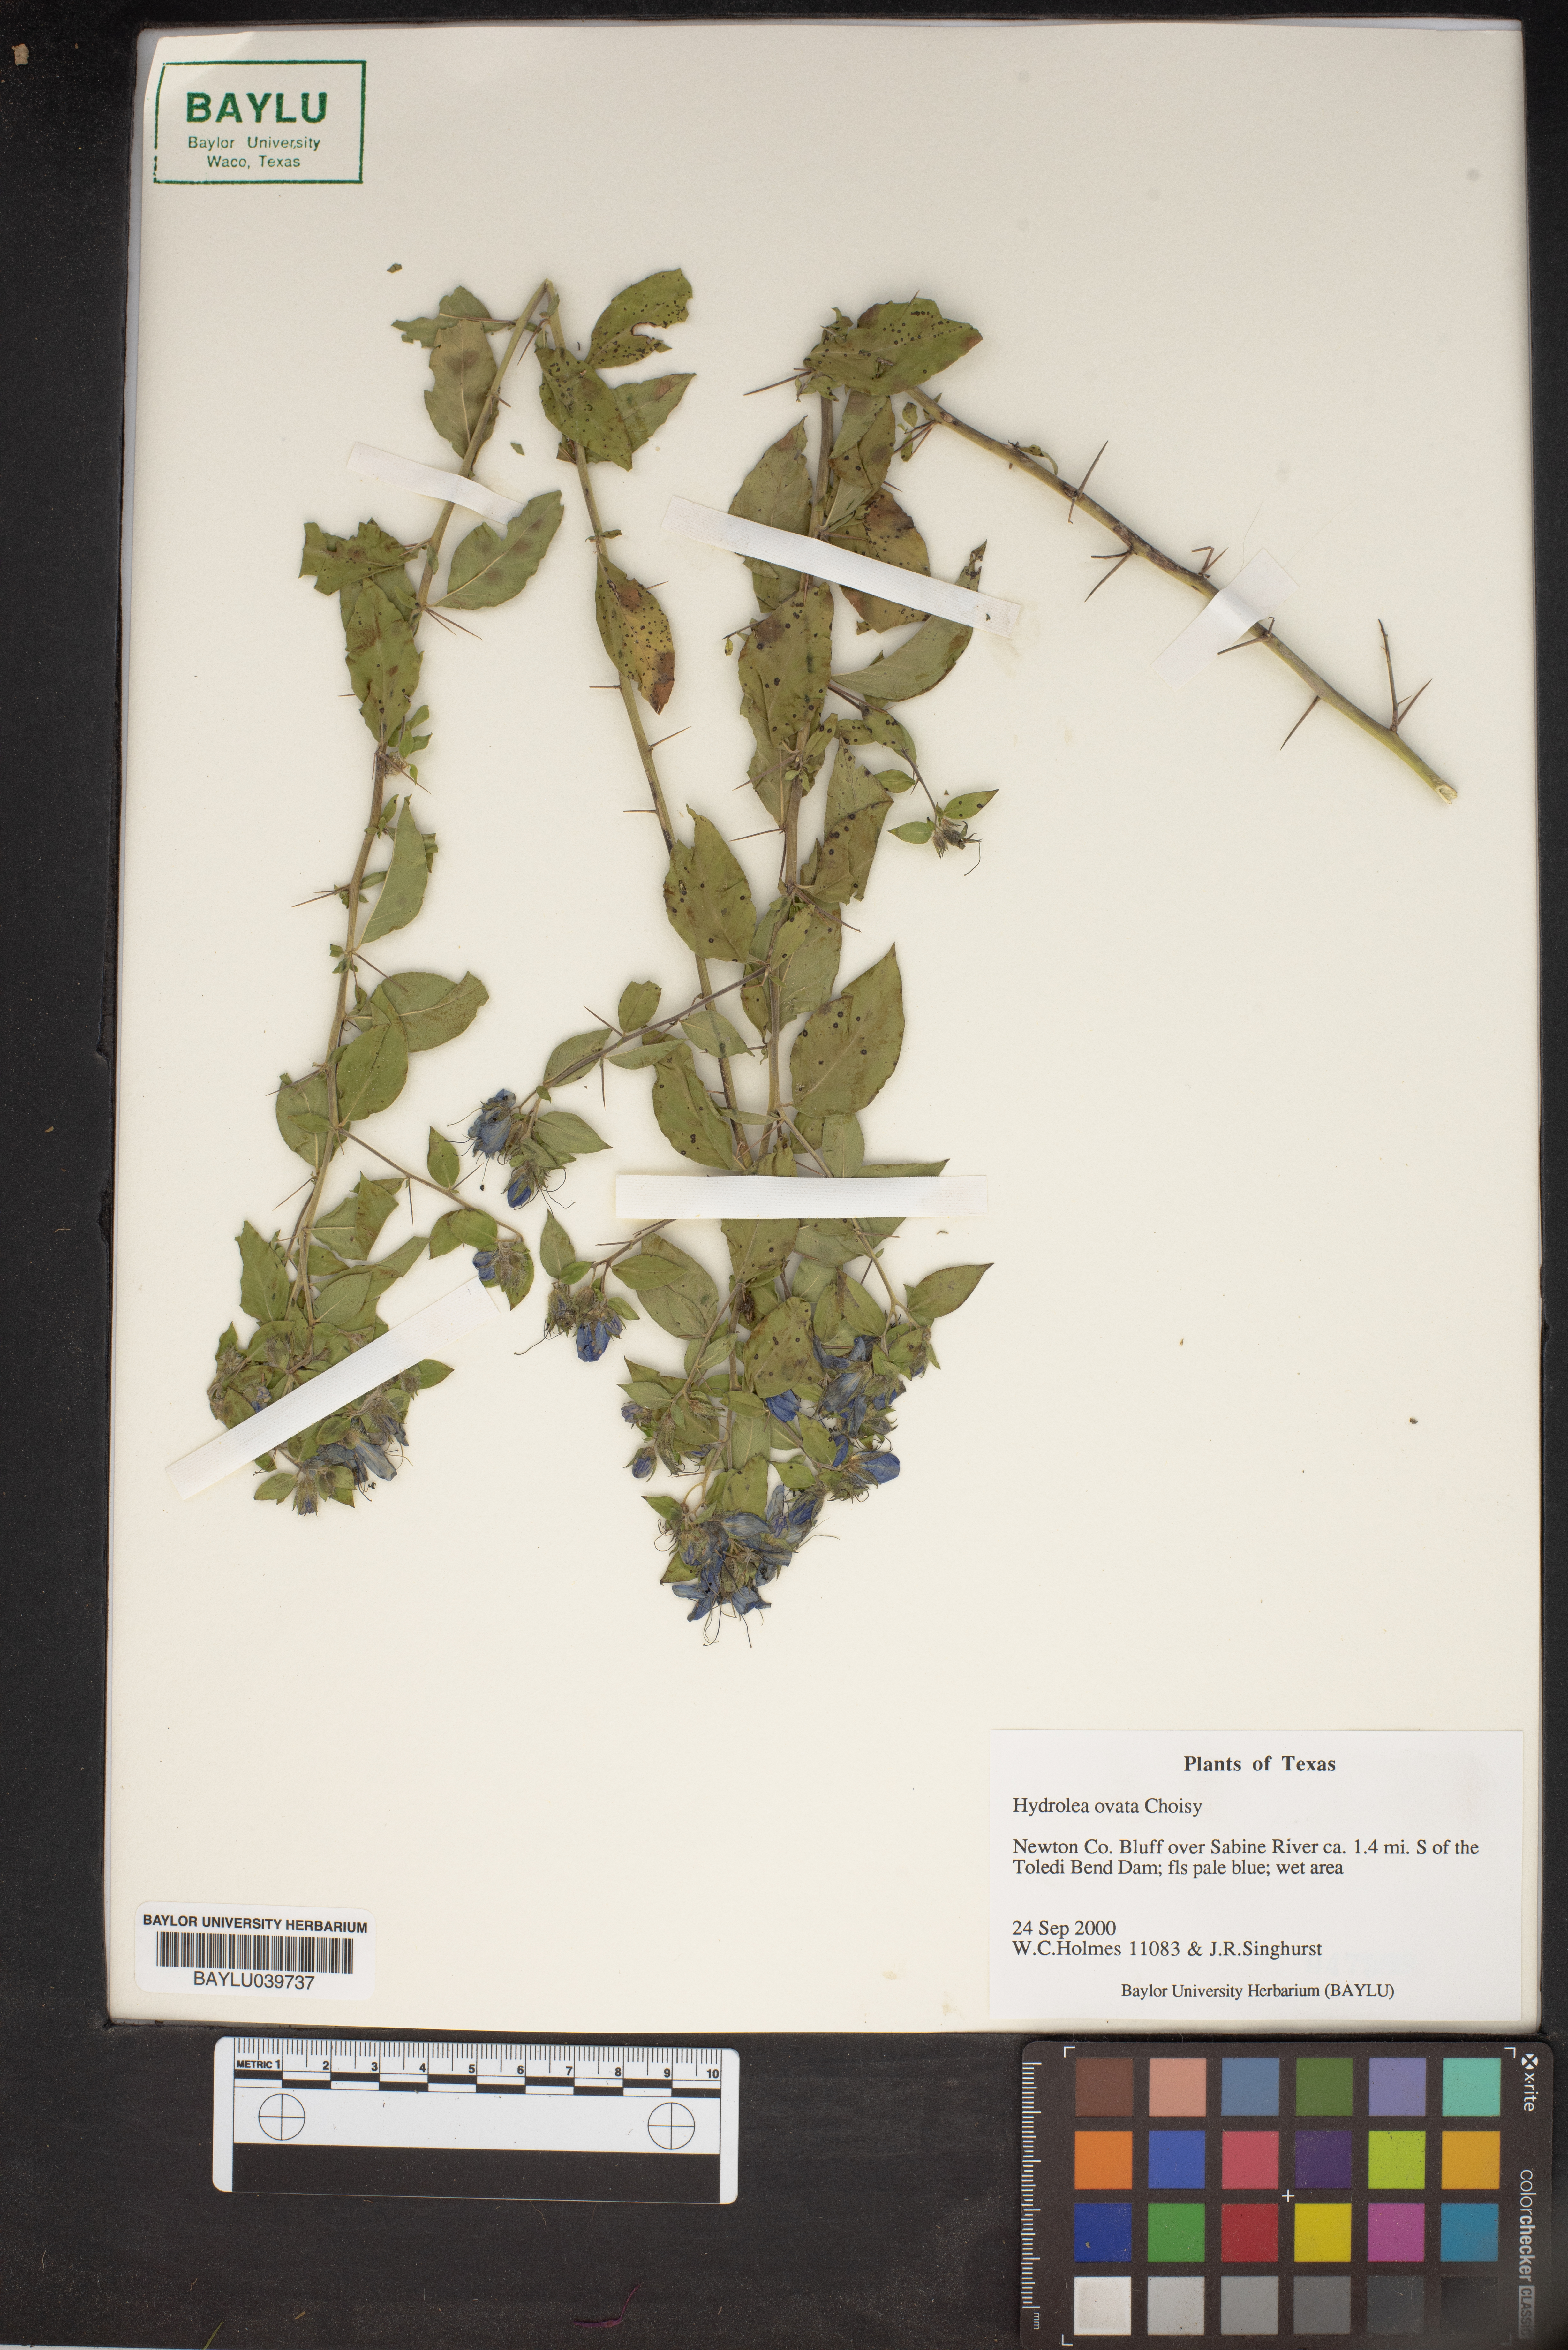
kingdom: Plantae
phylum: Tracheophyta
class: Magnoliopsida
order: Solanales
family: Hydroleaceae
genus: Hydrolea
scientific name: Hydrolea ovata
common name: Ovate false fiddleleaf
